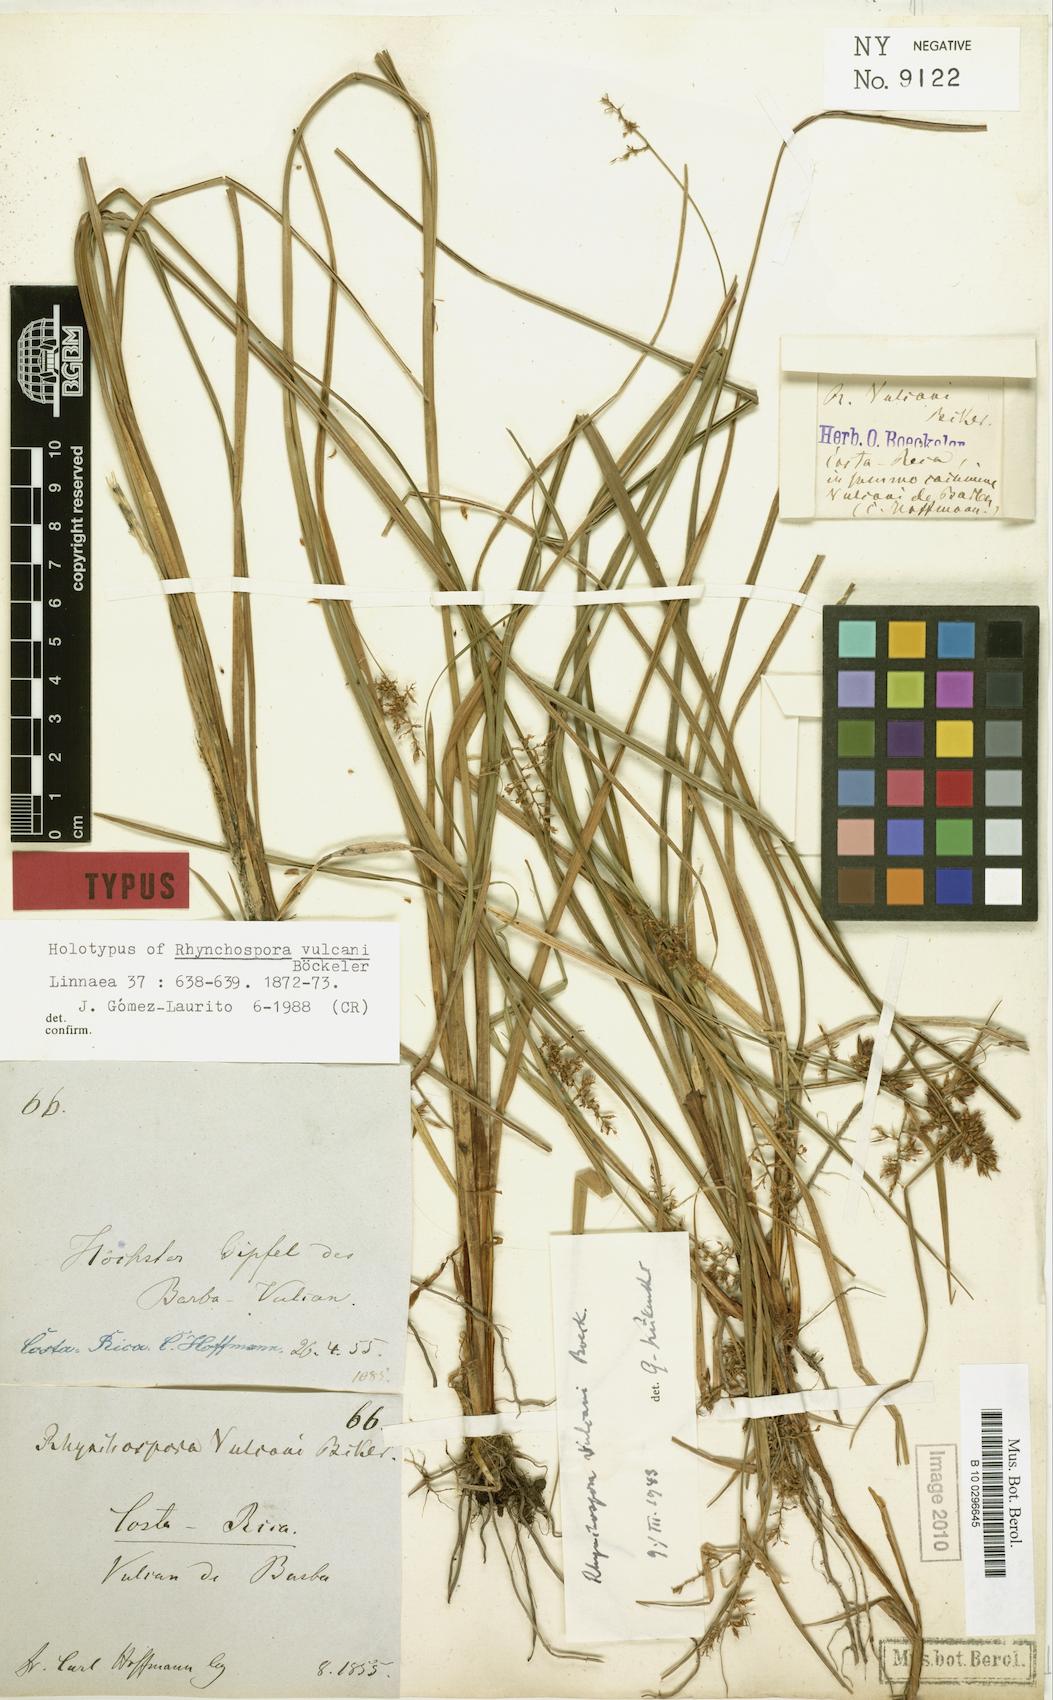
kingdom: Plantae
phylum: Tracheophyta
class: Liliopsida
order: Poales
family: Cyperaceae
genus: Rhynchospora
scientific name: Rhynchospora vulcani
